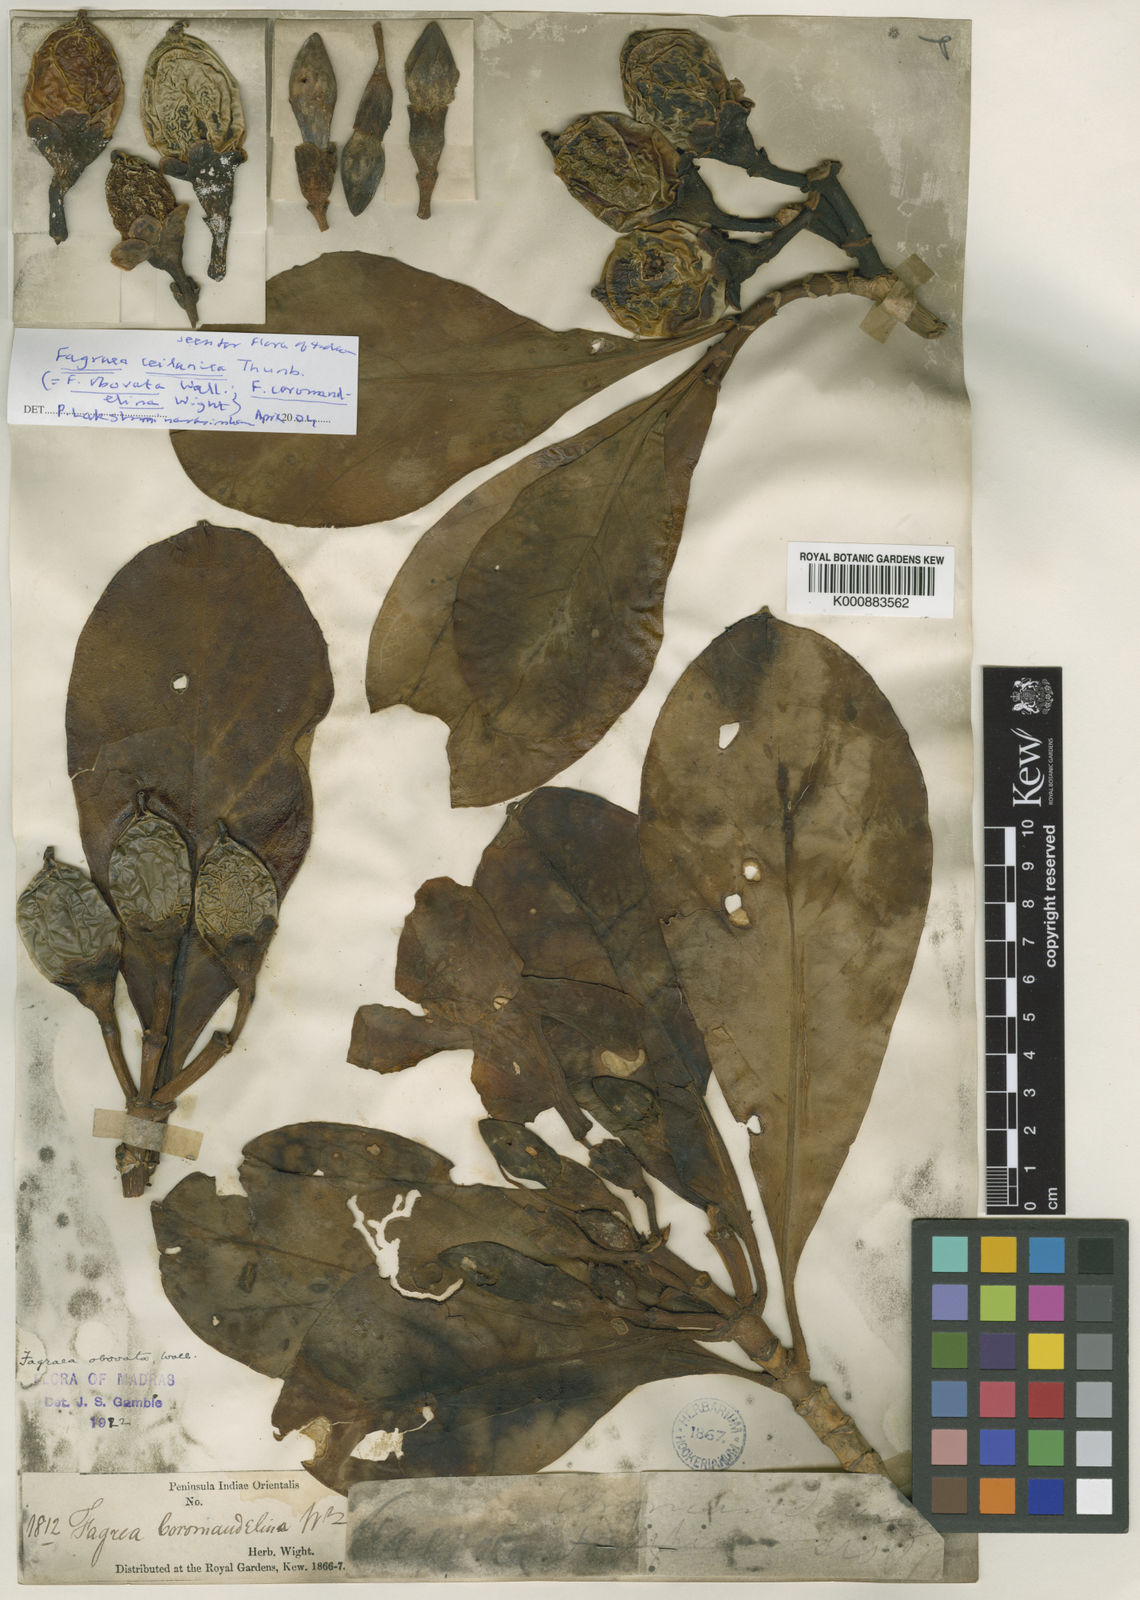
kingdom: Plantae
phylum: Tracheophyta
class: Magnoliopsida
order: Gentianales
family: Gentianaceae
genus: Fagraea
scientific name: Fagraea ceilanica
